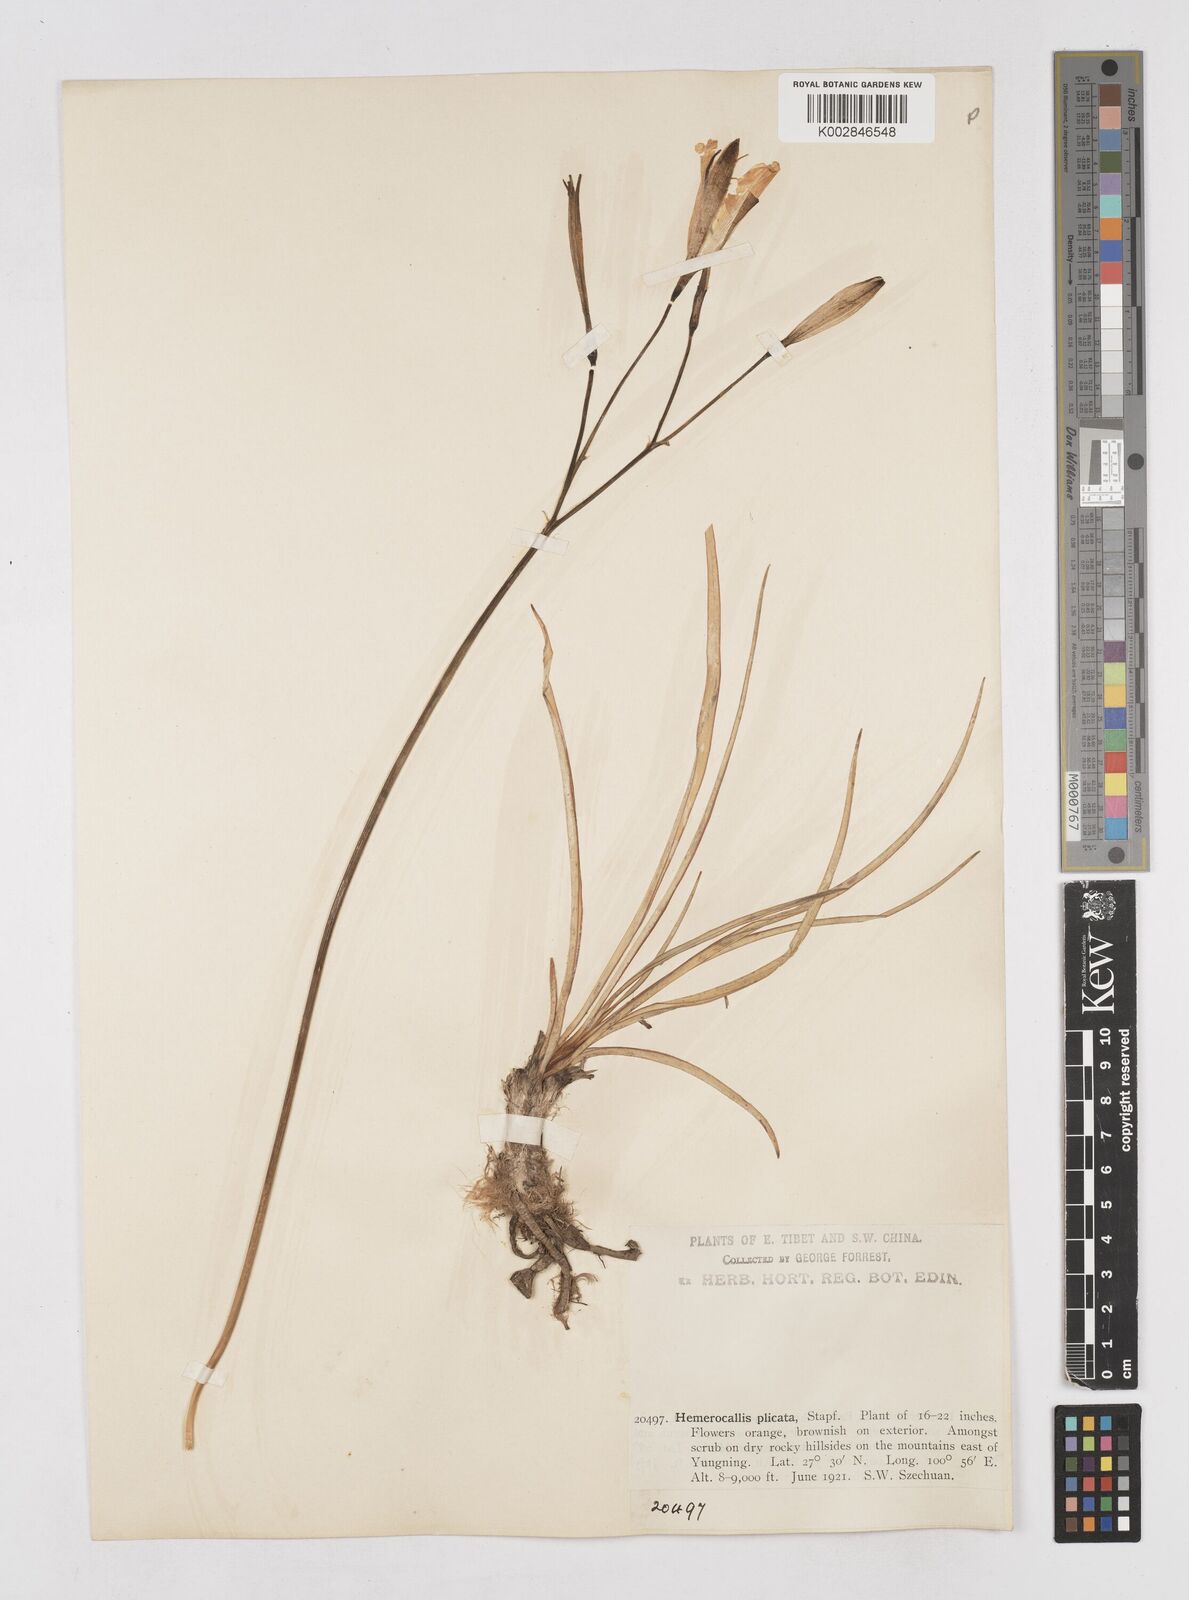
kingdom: Plantae
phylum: Tracheophyta
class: Liliopsida
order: Asparagales
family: Asphodelaceae
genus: Hemerocallis
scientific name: Hemerocallis plicata
